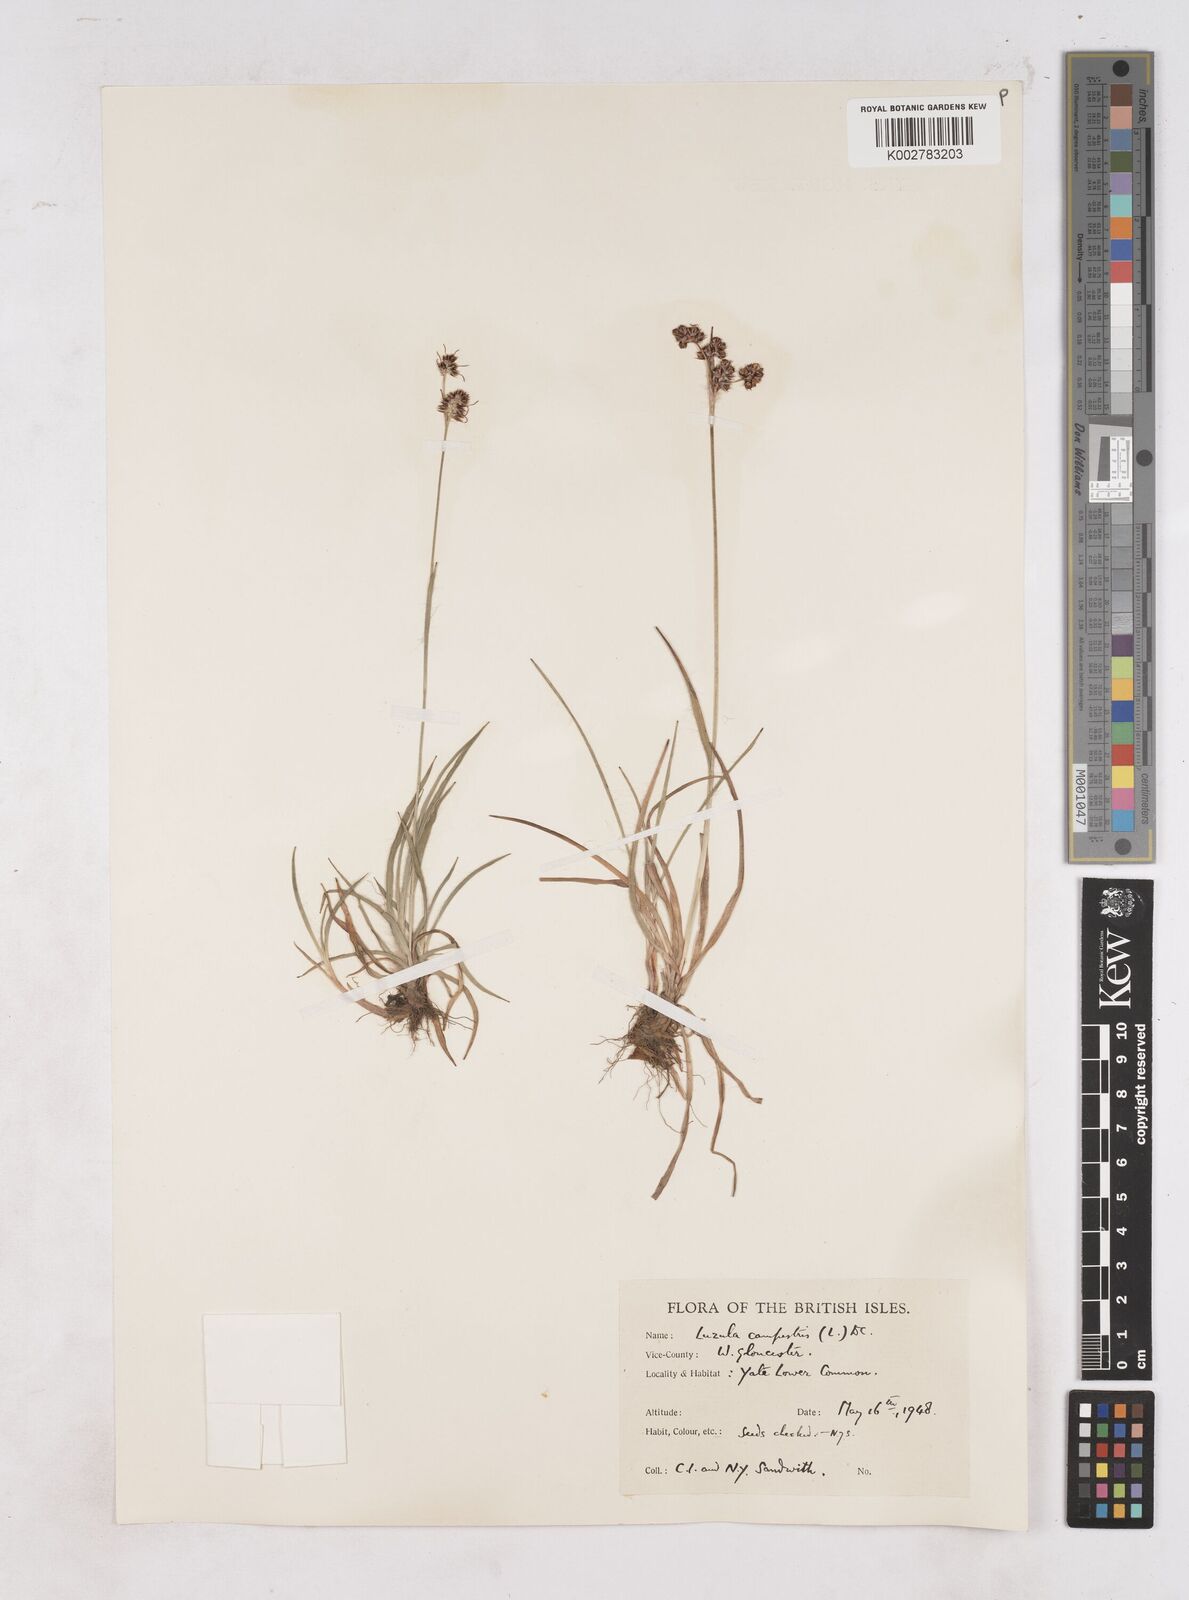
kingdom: Plantae
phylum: Tracheophyta
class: Liliopsida
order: Poales
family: Juncaceae
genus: Luzula
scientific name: Luzula multiflora
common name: Heath wood-rush
